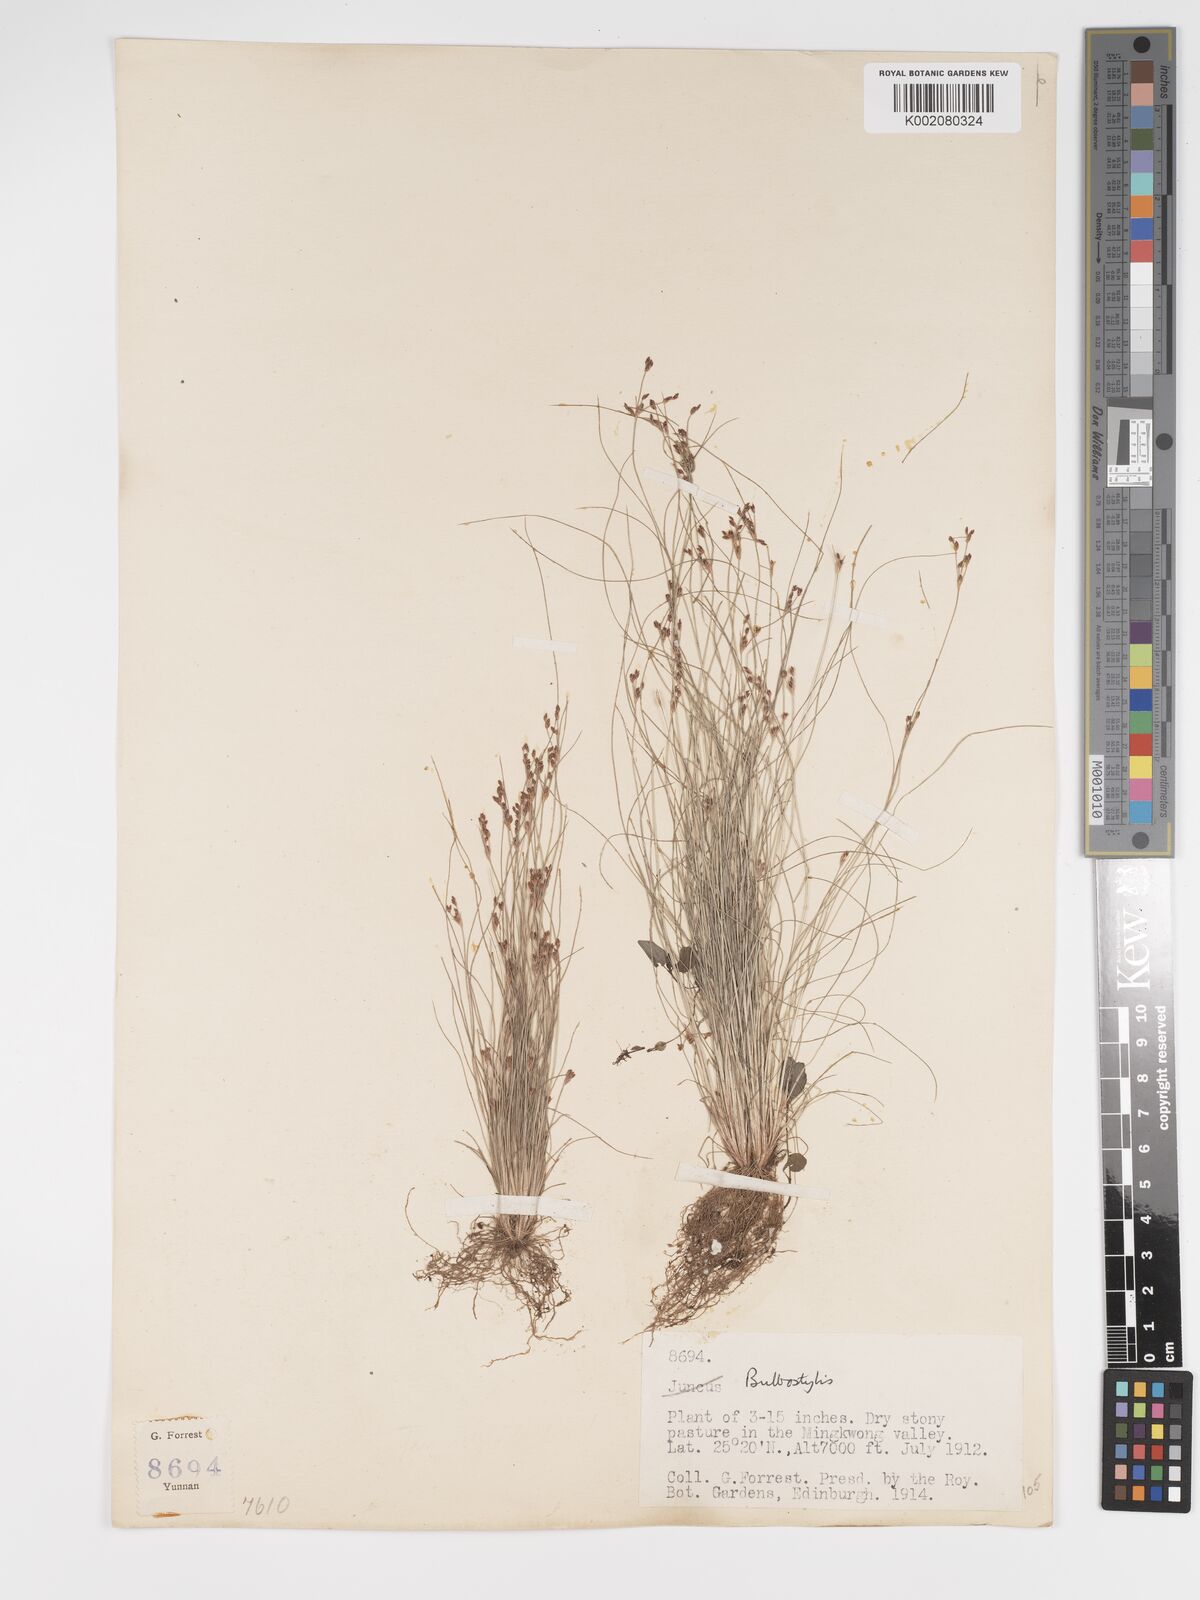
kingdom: Plantae
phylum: Tracheophyta
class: Liliopsida
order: Poales
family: Cyperaceae
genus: Bulbostylis
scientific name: Bulbostylis capillaris
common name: Densetuft hairsedge
